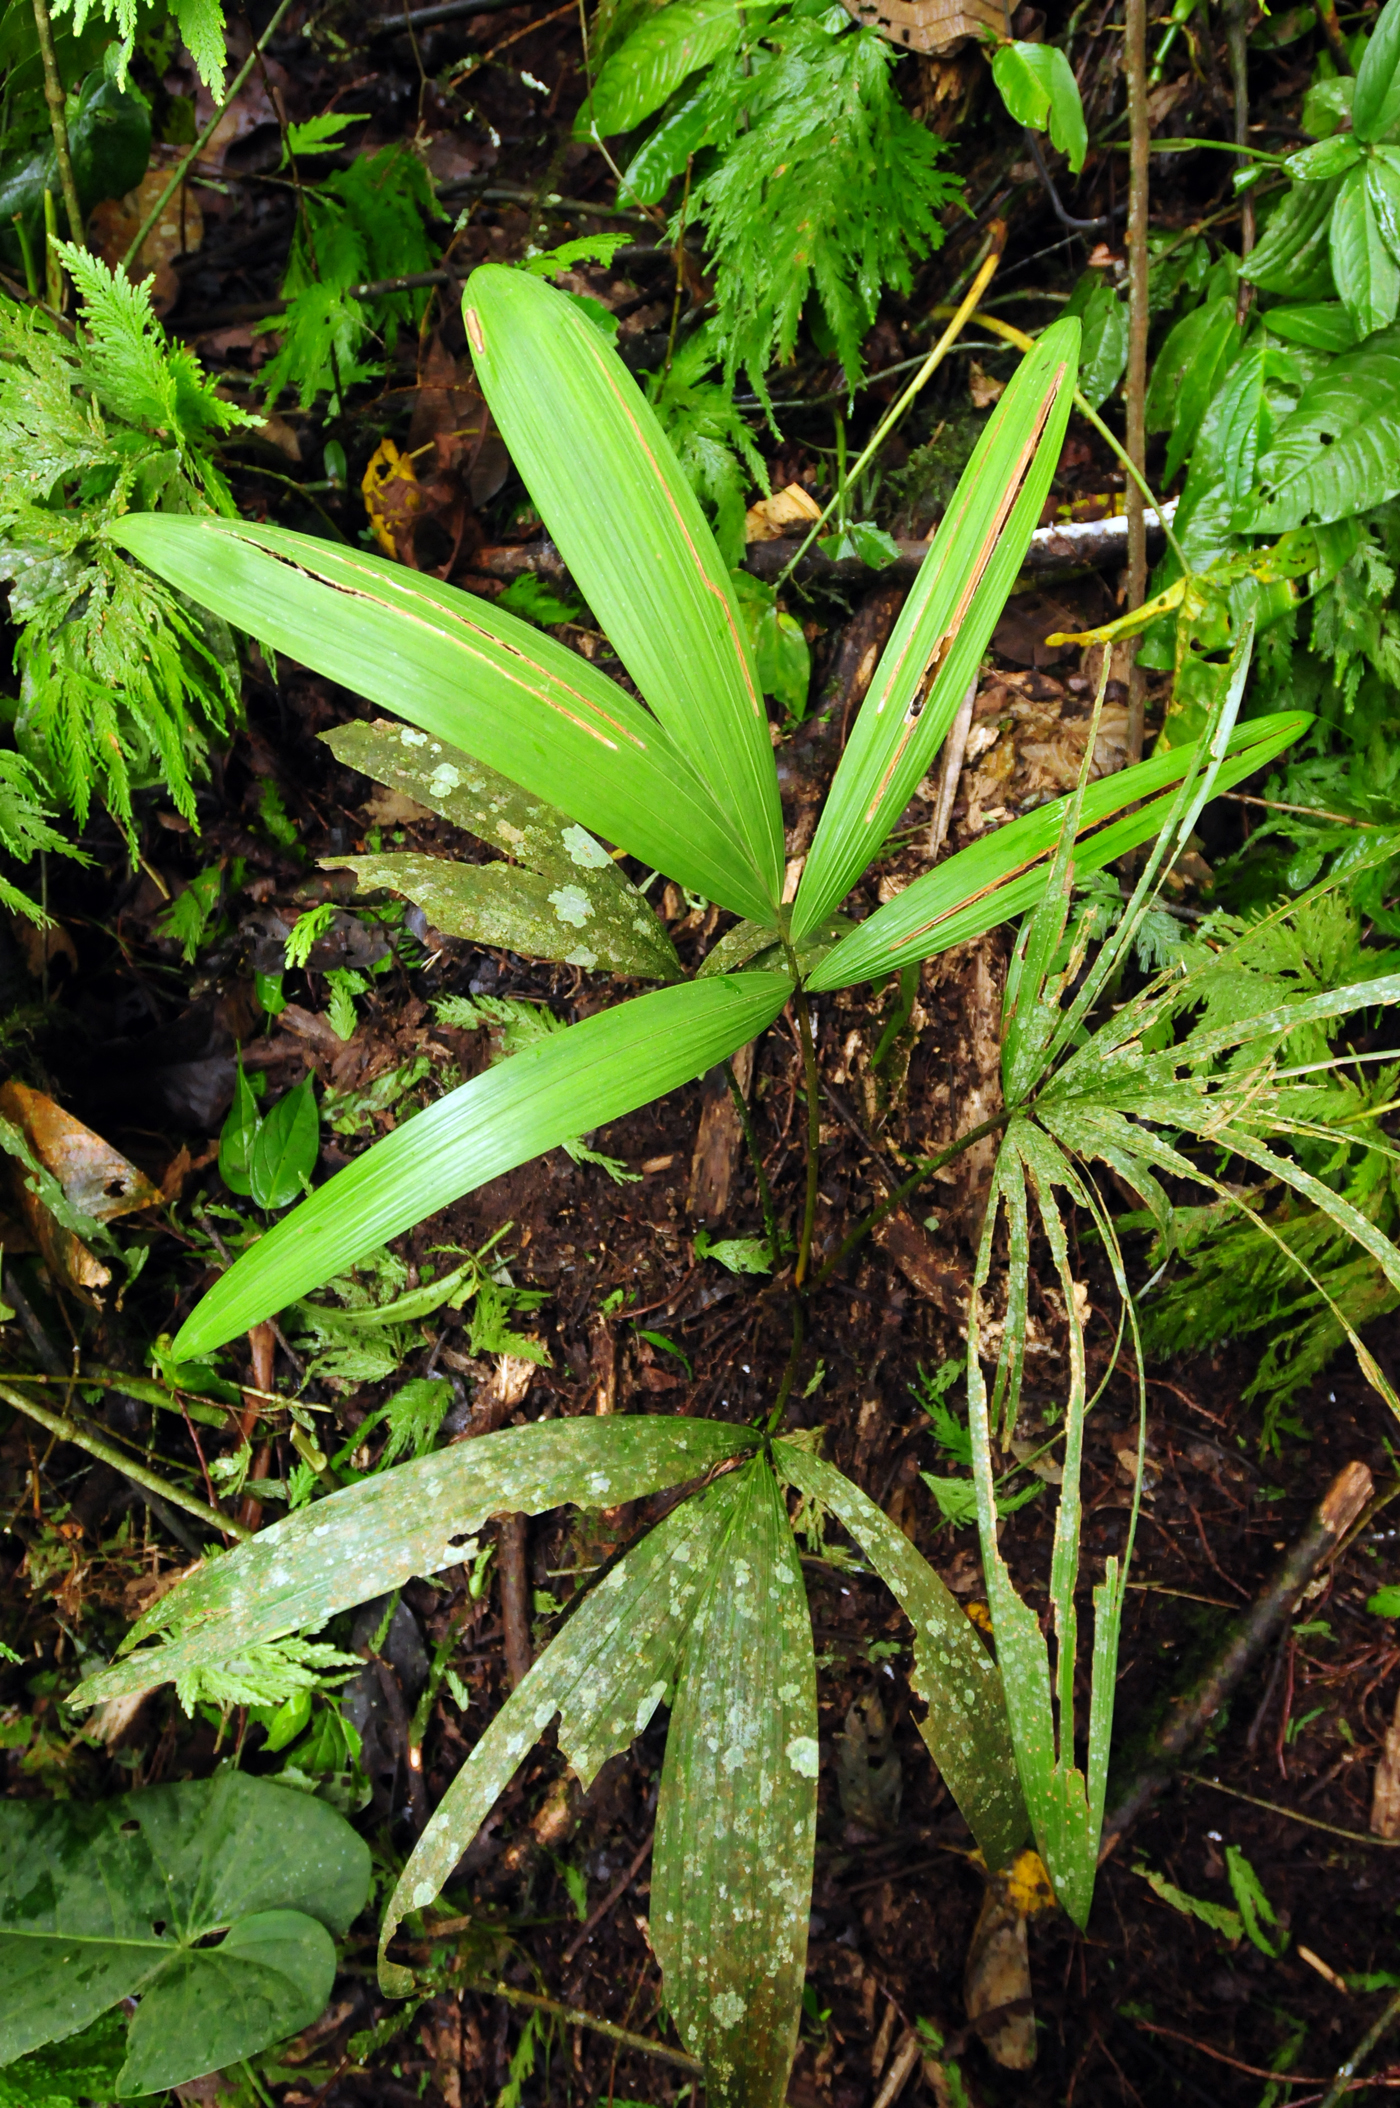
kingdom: Plantae
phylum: Tracheophyta
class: Liliopsida
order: Arecales
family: Arecaceae
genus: Oenocarpus
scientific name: Oenocarpus bataua
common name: Bataua palm
